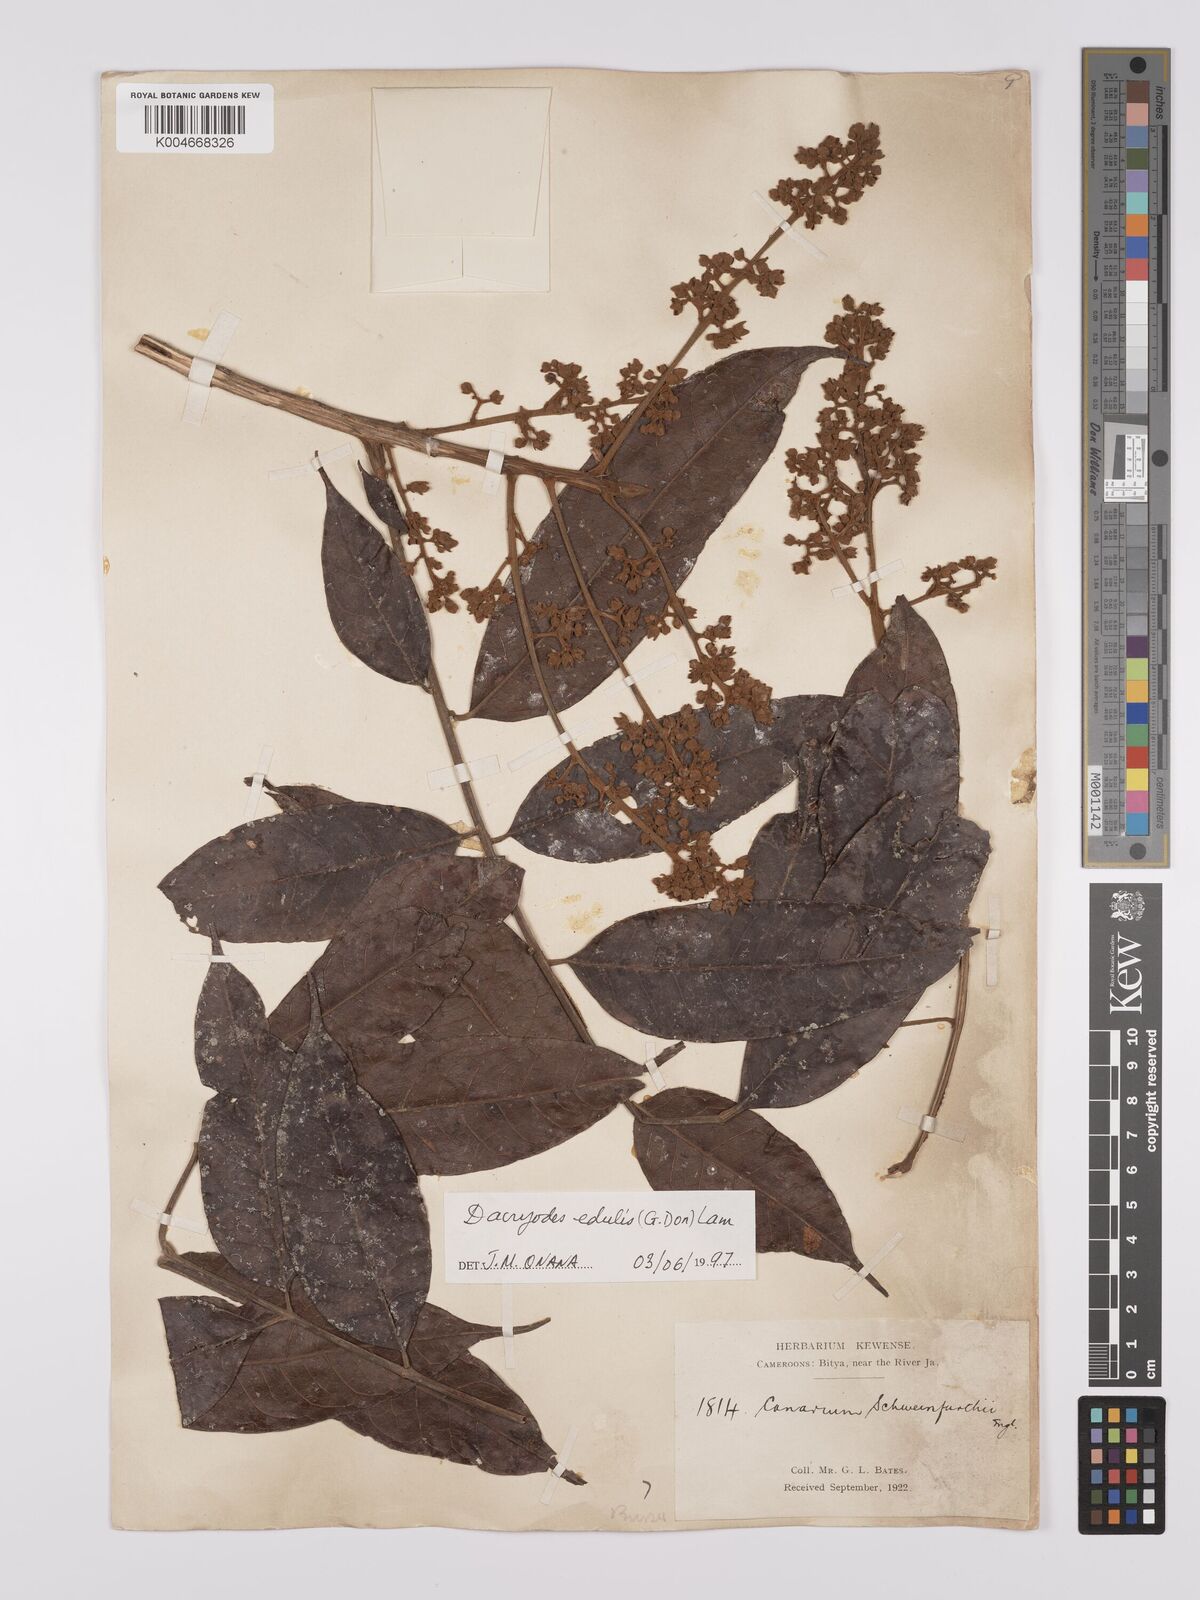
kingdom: Plantae
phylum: Tracheophyta
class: Magnoliopsida
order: Sapindales
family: Burseraceae
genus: Pachylobus
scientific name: Pachylobus edulis
